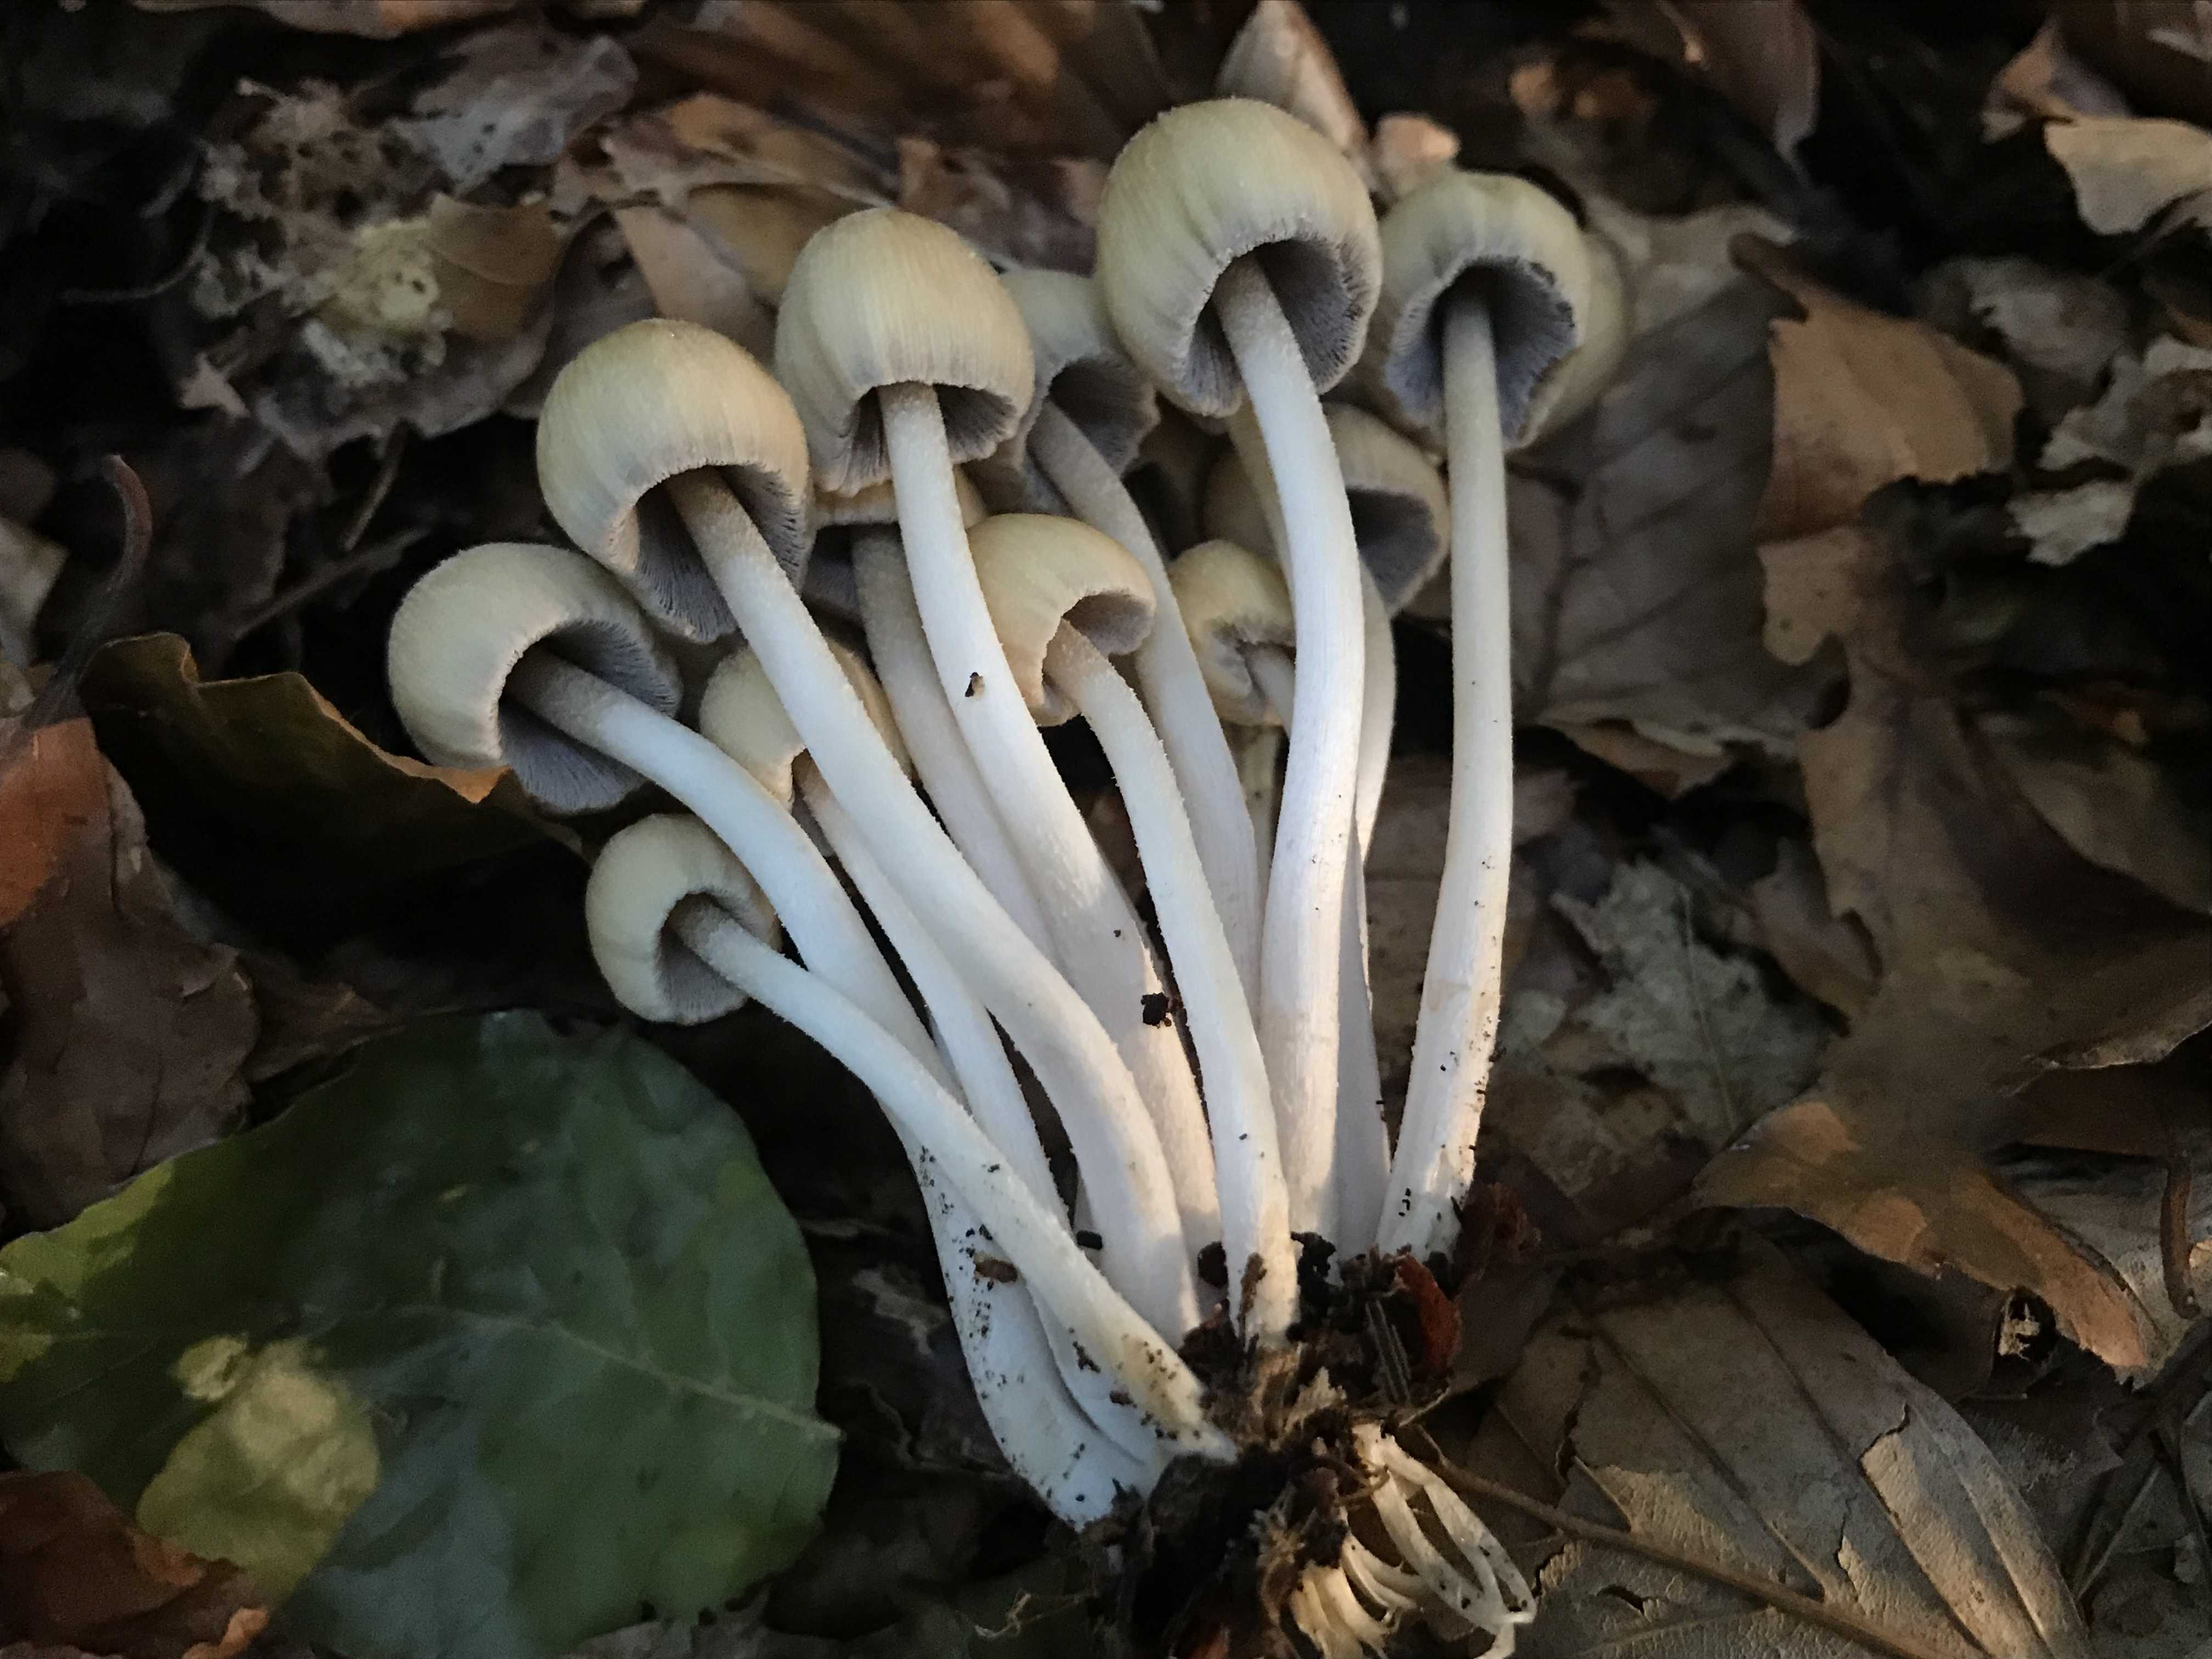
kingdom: Fungi
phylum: Basidiomycota
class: Agaricomycetes
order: Agaricales
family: Psathyrellaceae
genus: Coprinellus
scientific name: Coprinellus micaceus
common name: glimmer-blækhat
